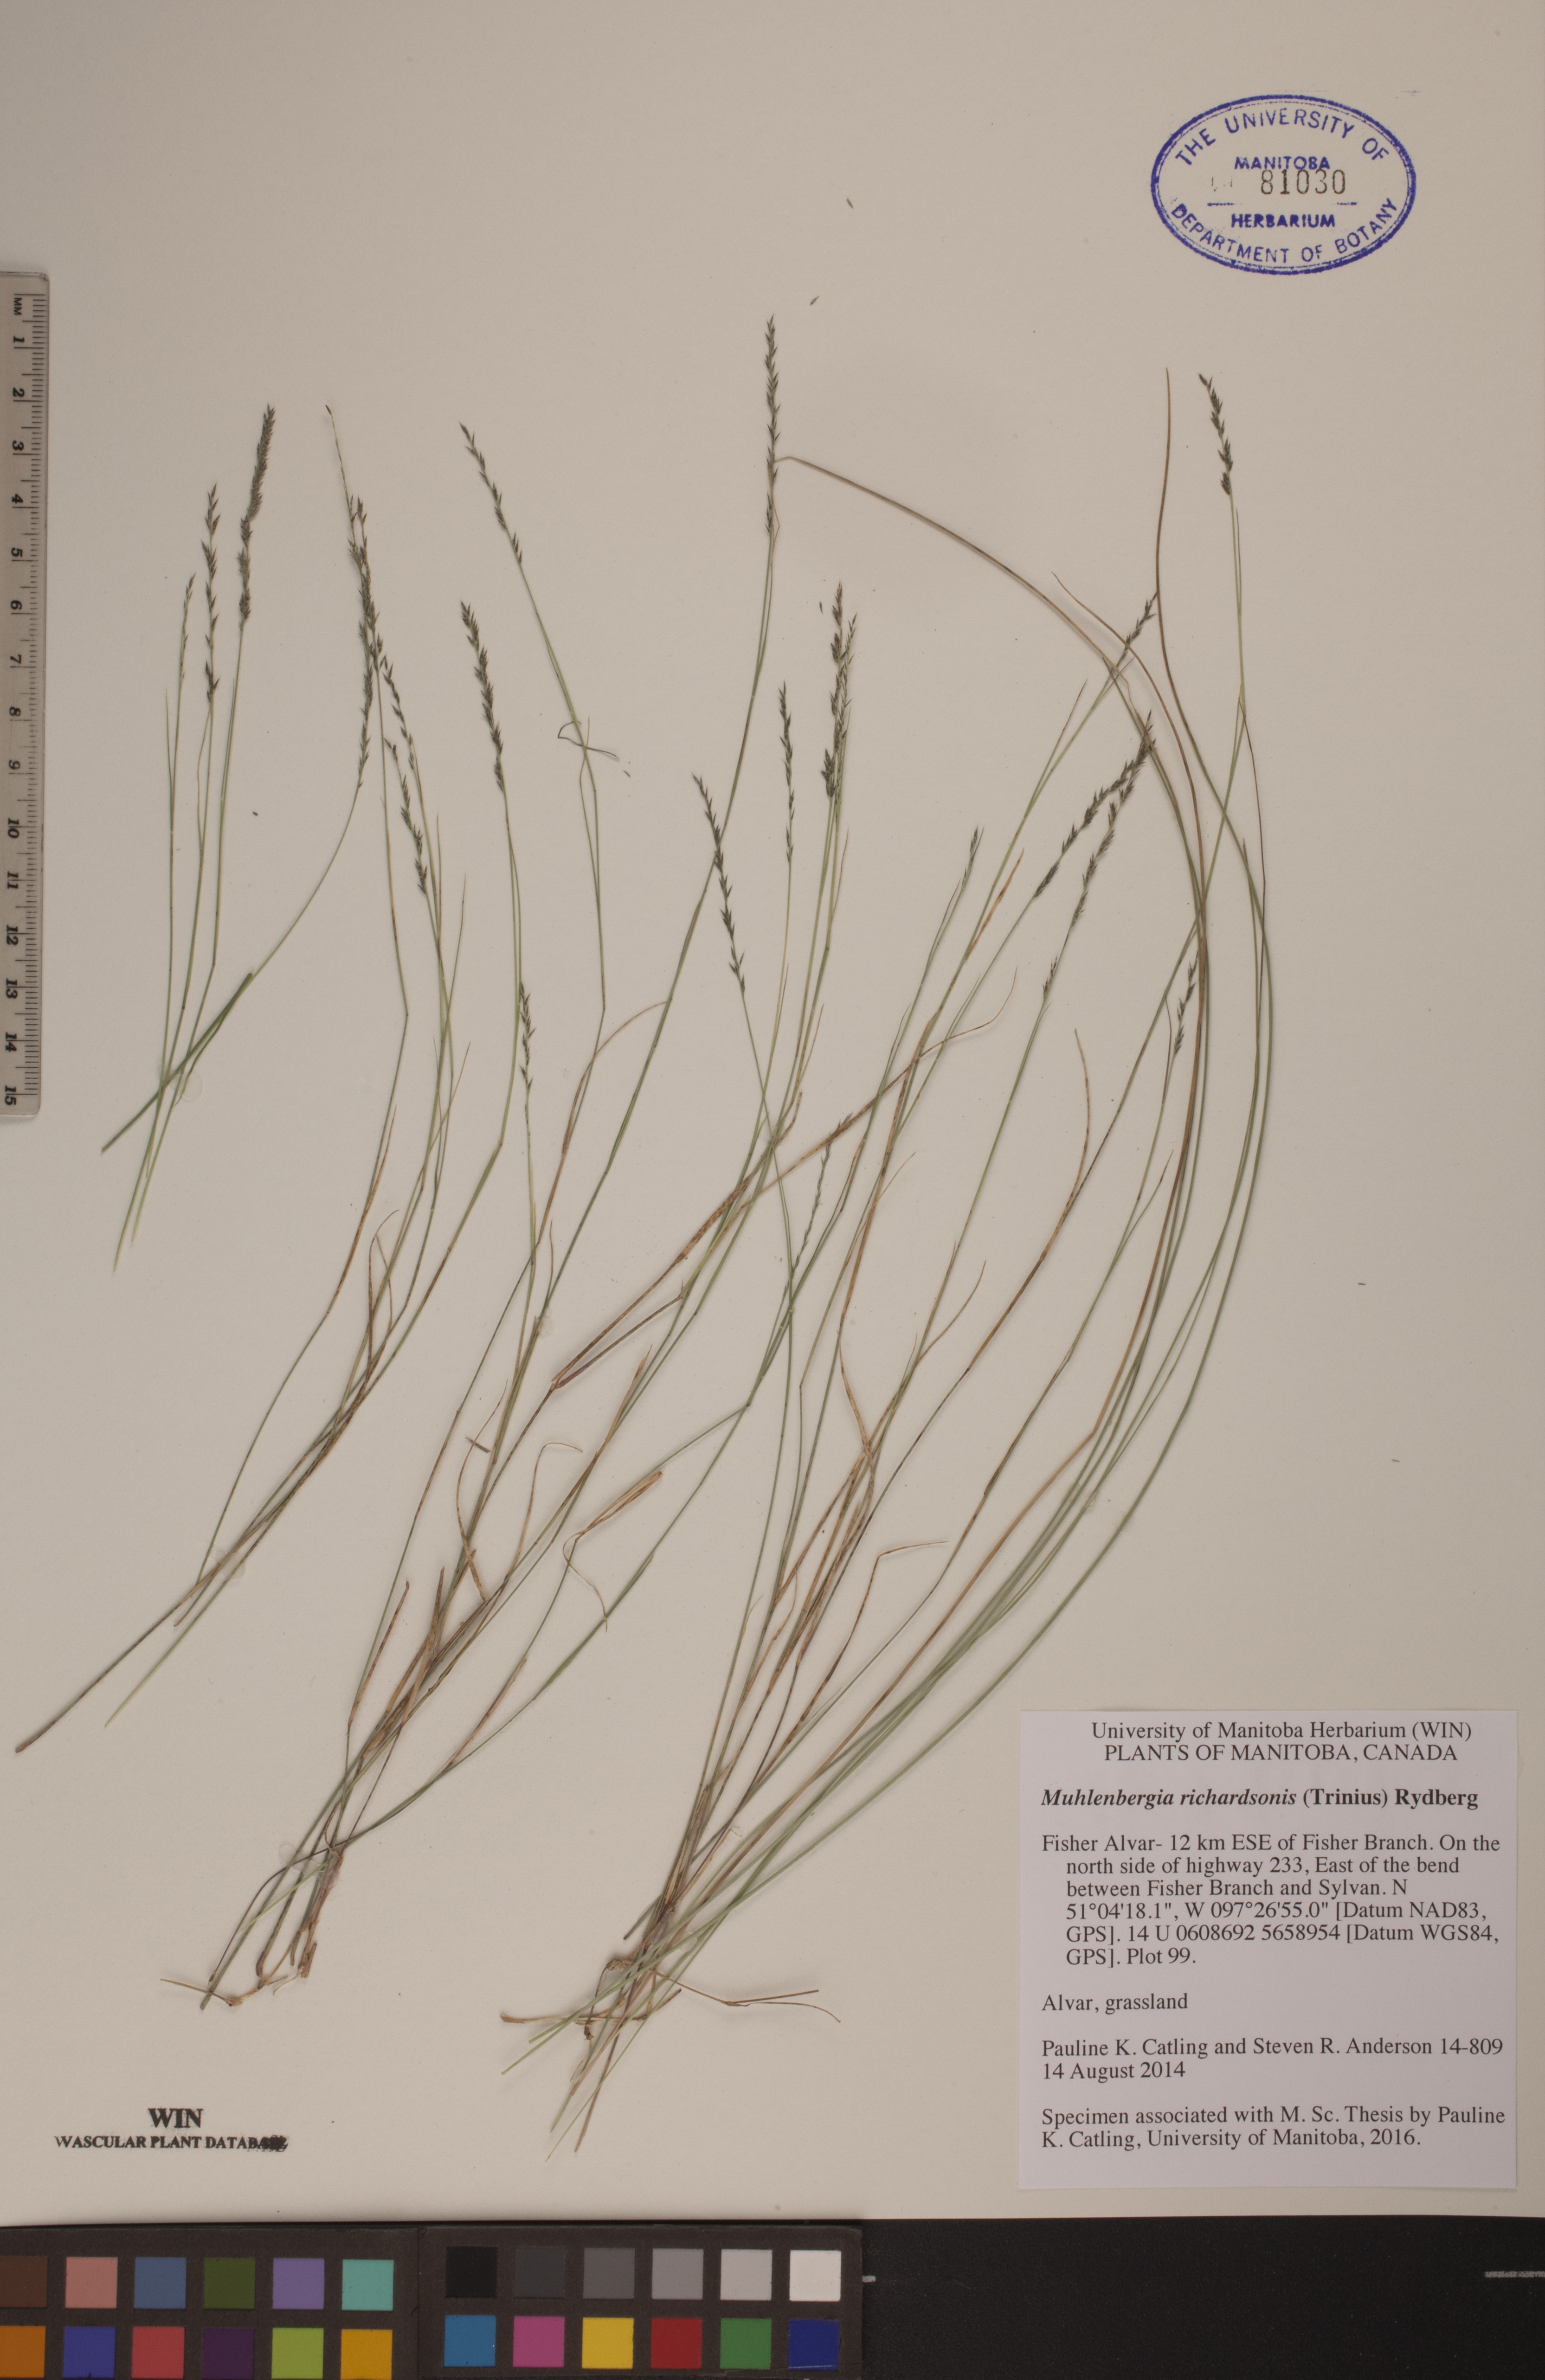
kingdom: Plantae
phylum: Tracheophyta
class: Liliopsida
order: Poales
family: Poaceae
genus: Muhlenbergia
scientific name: Muhlenbergia richardsonis
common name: Mat muhly
